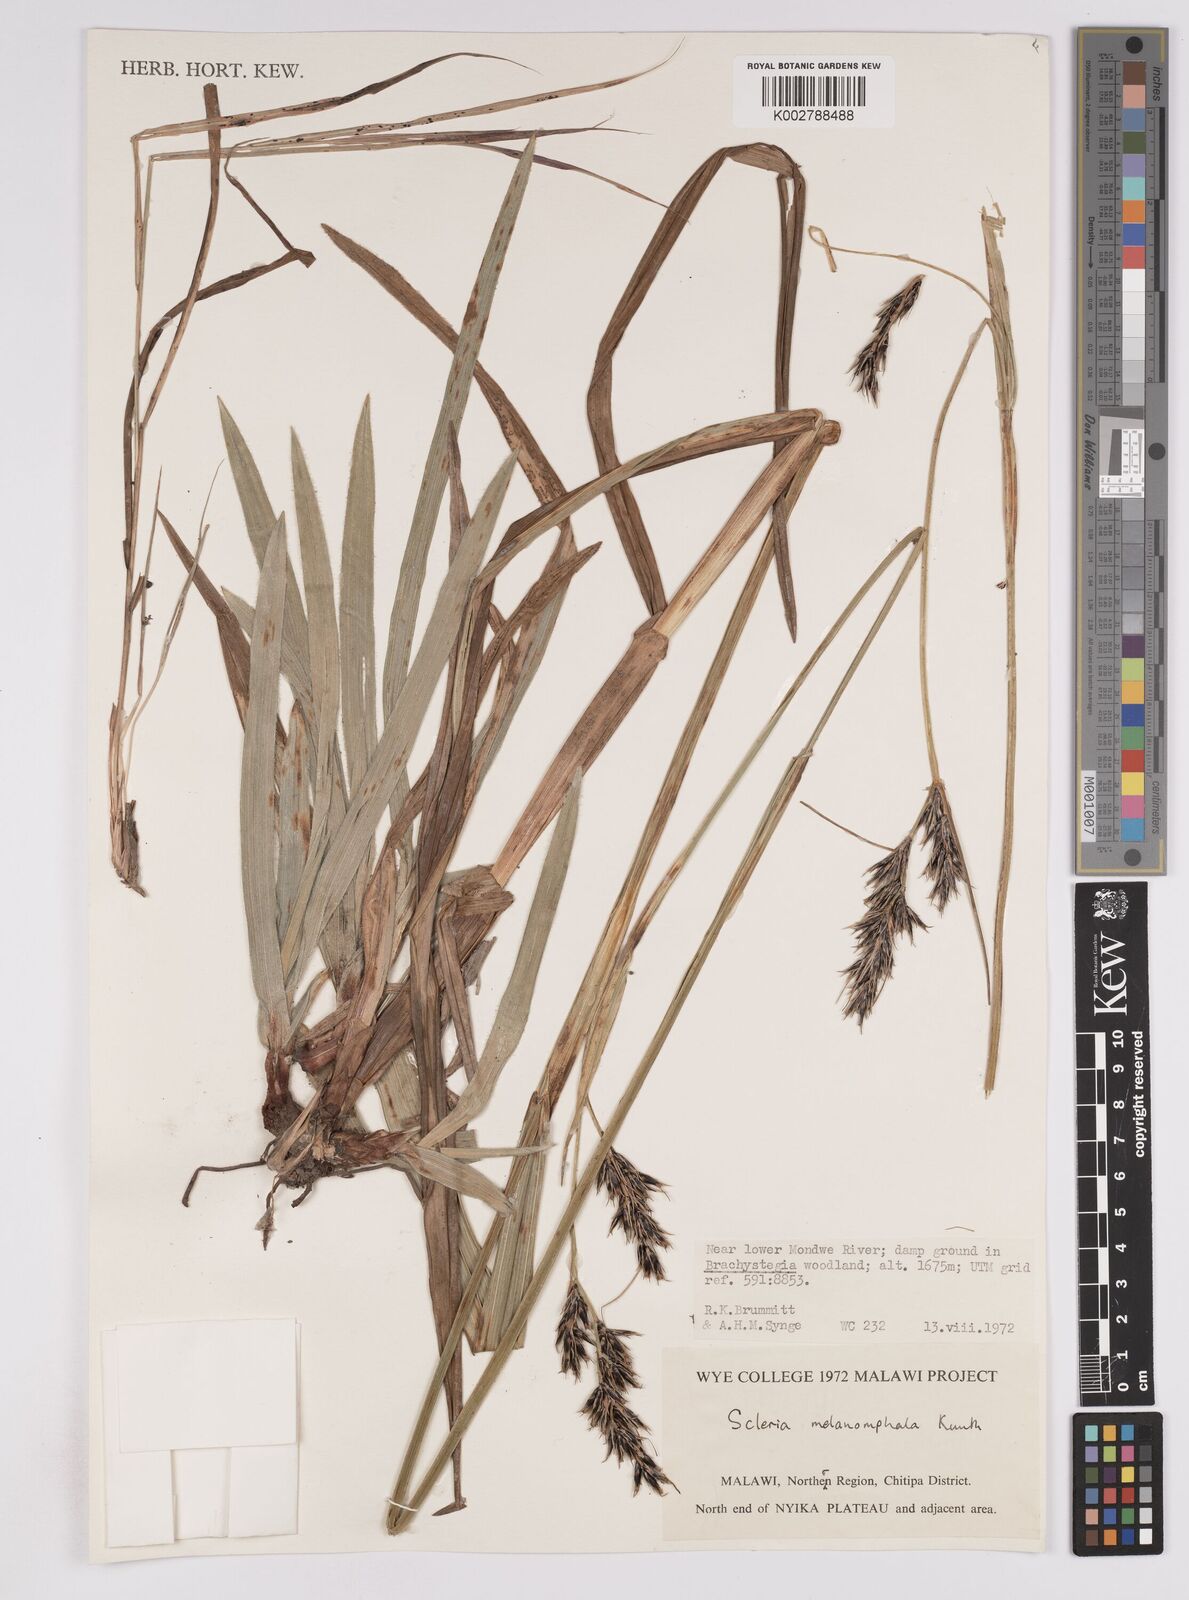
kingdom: Plantae
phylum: Tracheophyta
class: Liliopsida
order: Poales
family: Cyperaceae
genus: Scleria
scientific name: Scleria melanomphala
